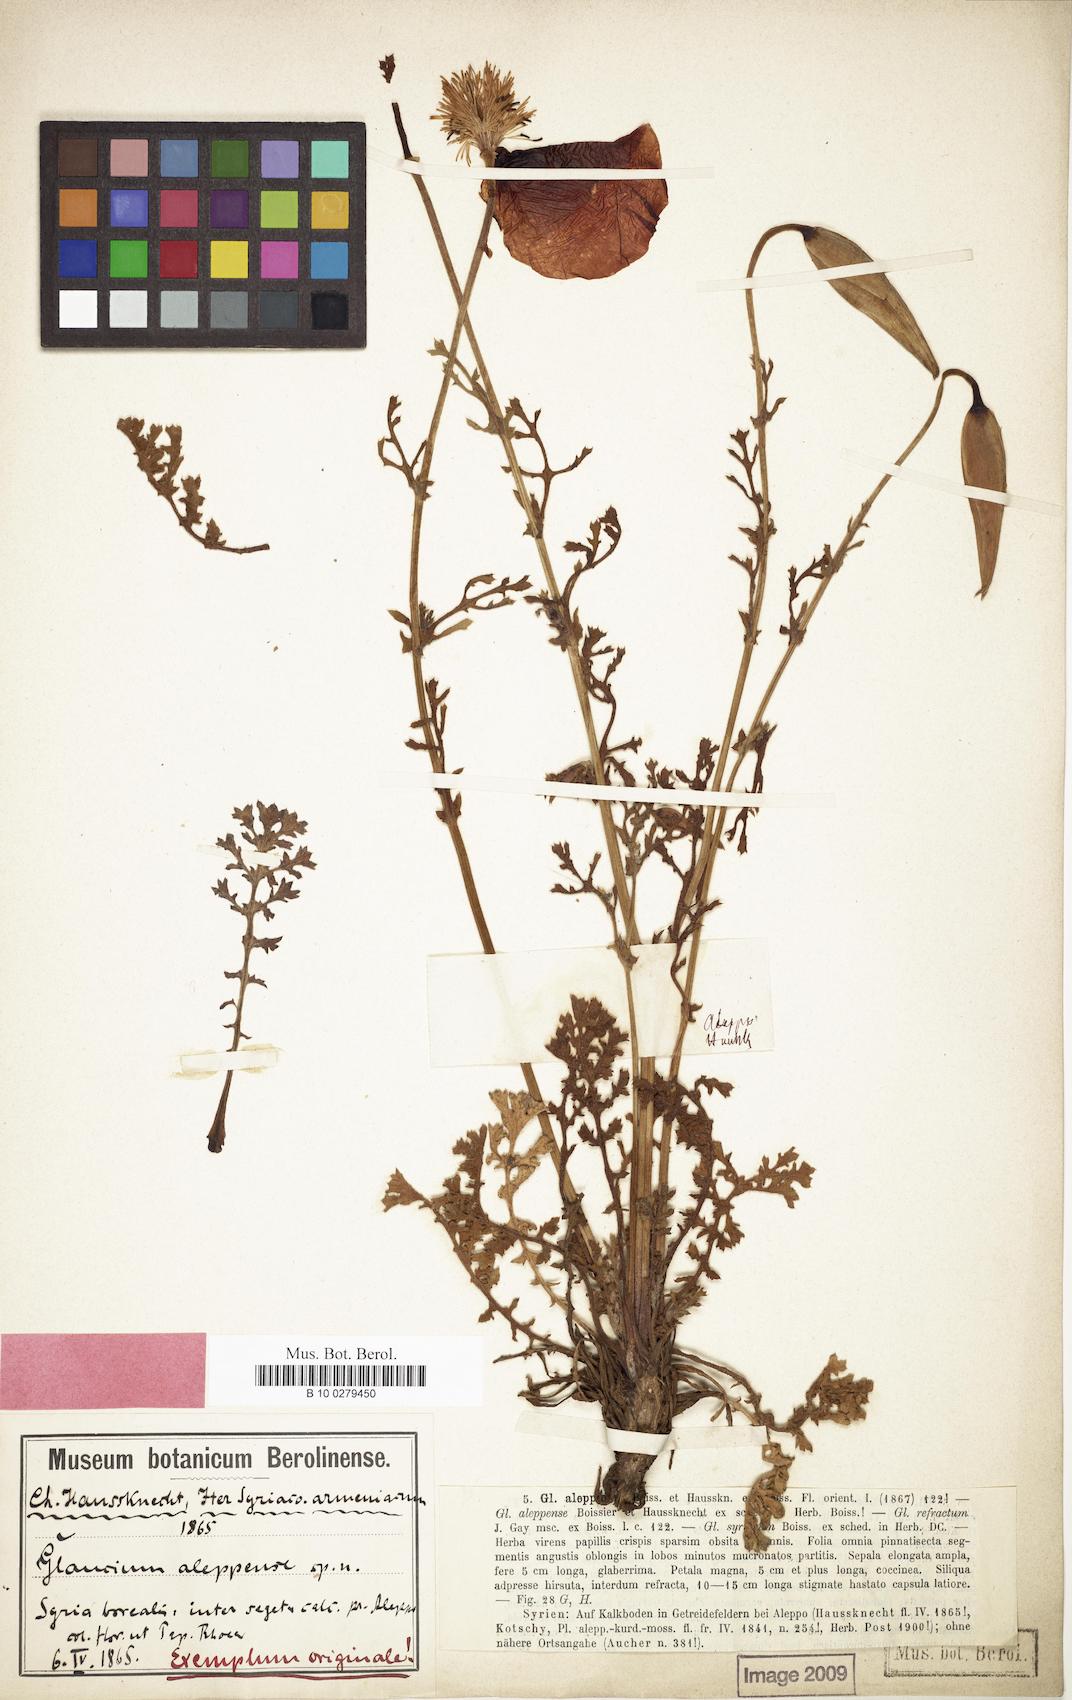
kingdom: Plantae
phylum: Tracheophyta
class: Magnoliopsida
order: Ranunculales
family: Papaveraceae
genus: Glaucium
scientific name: Glaucium aleppicum
